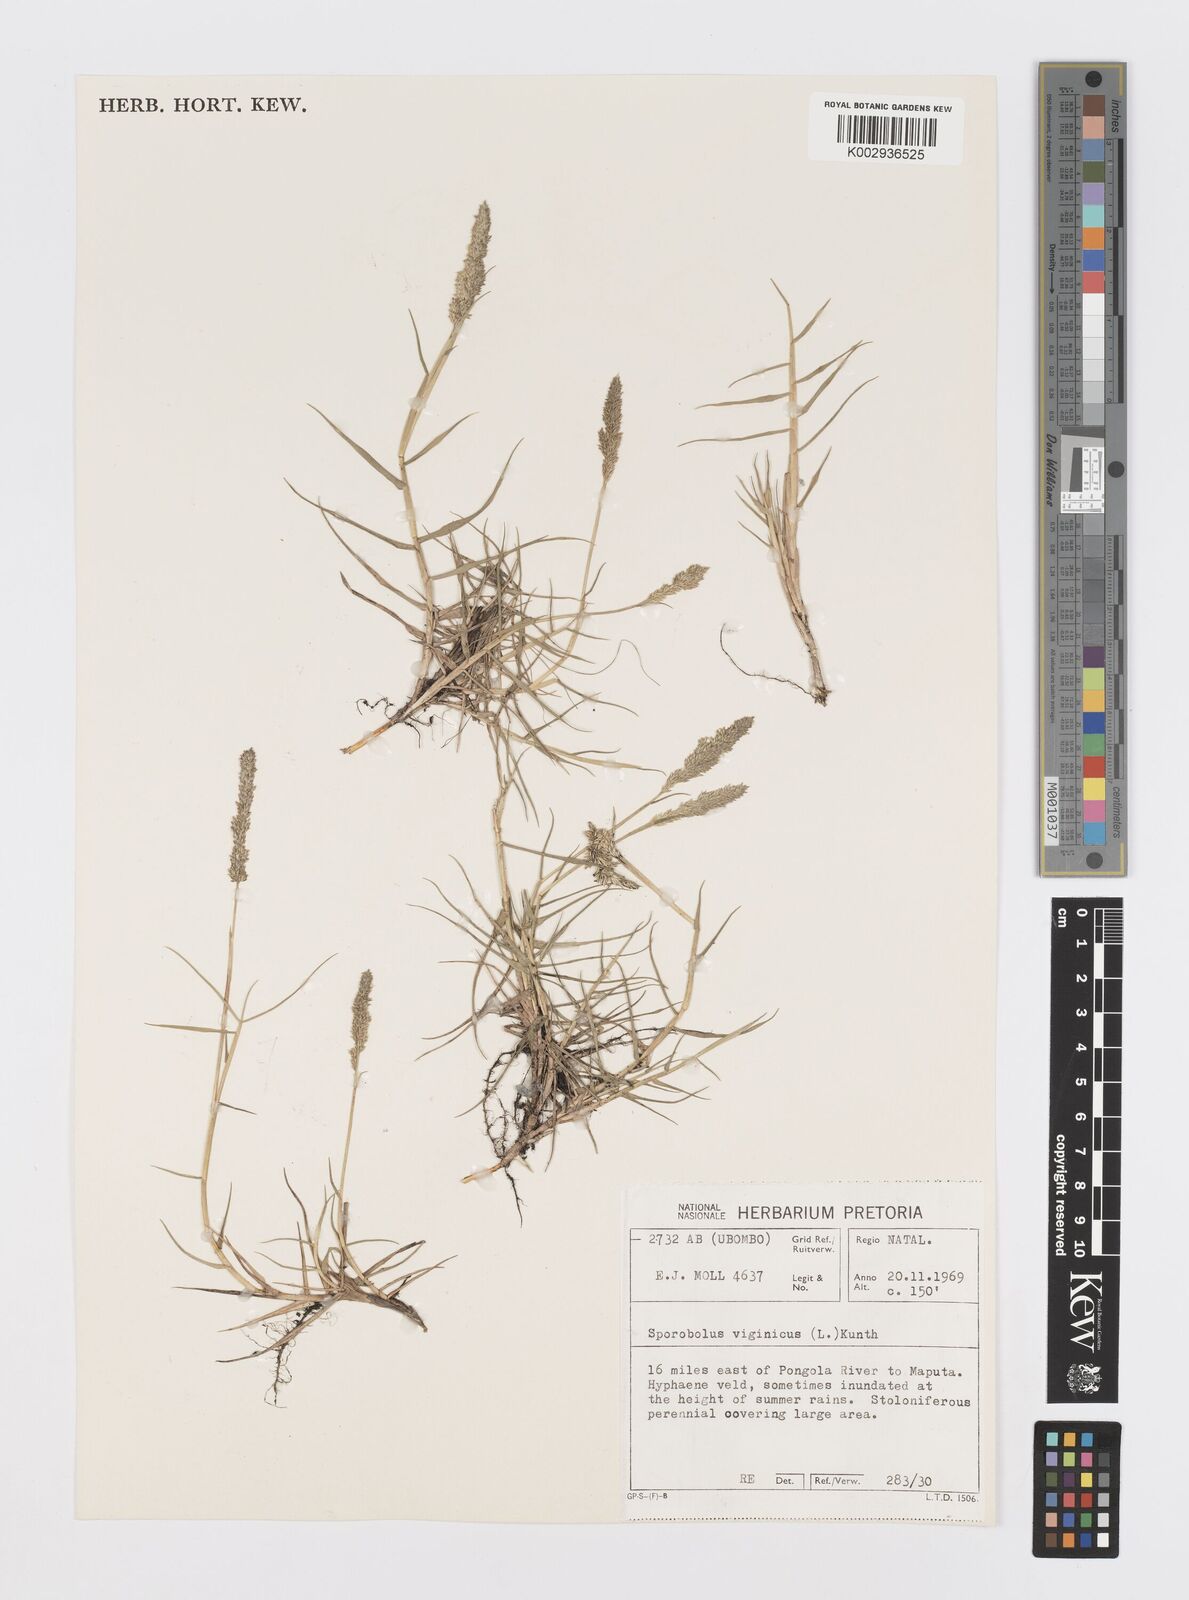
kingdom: Plantae
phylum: Tracheophyta
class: Liliopsida
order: Poales
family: Poaceae
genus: Sporobolus
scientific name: Sporobolus virginicus
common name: Beach dropseed
